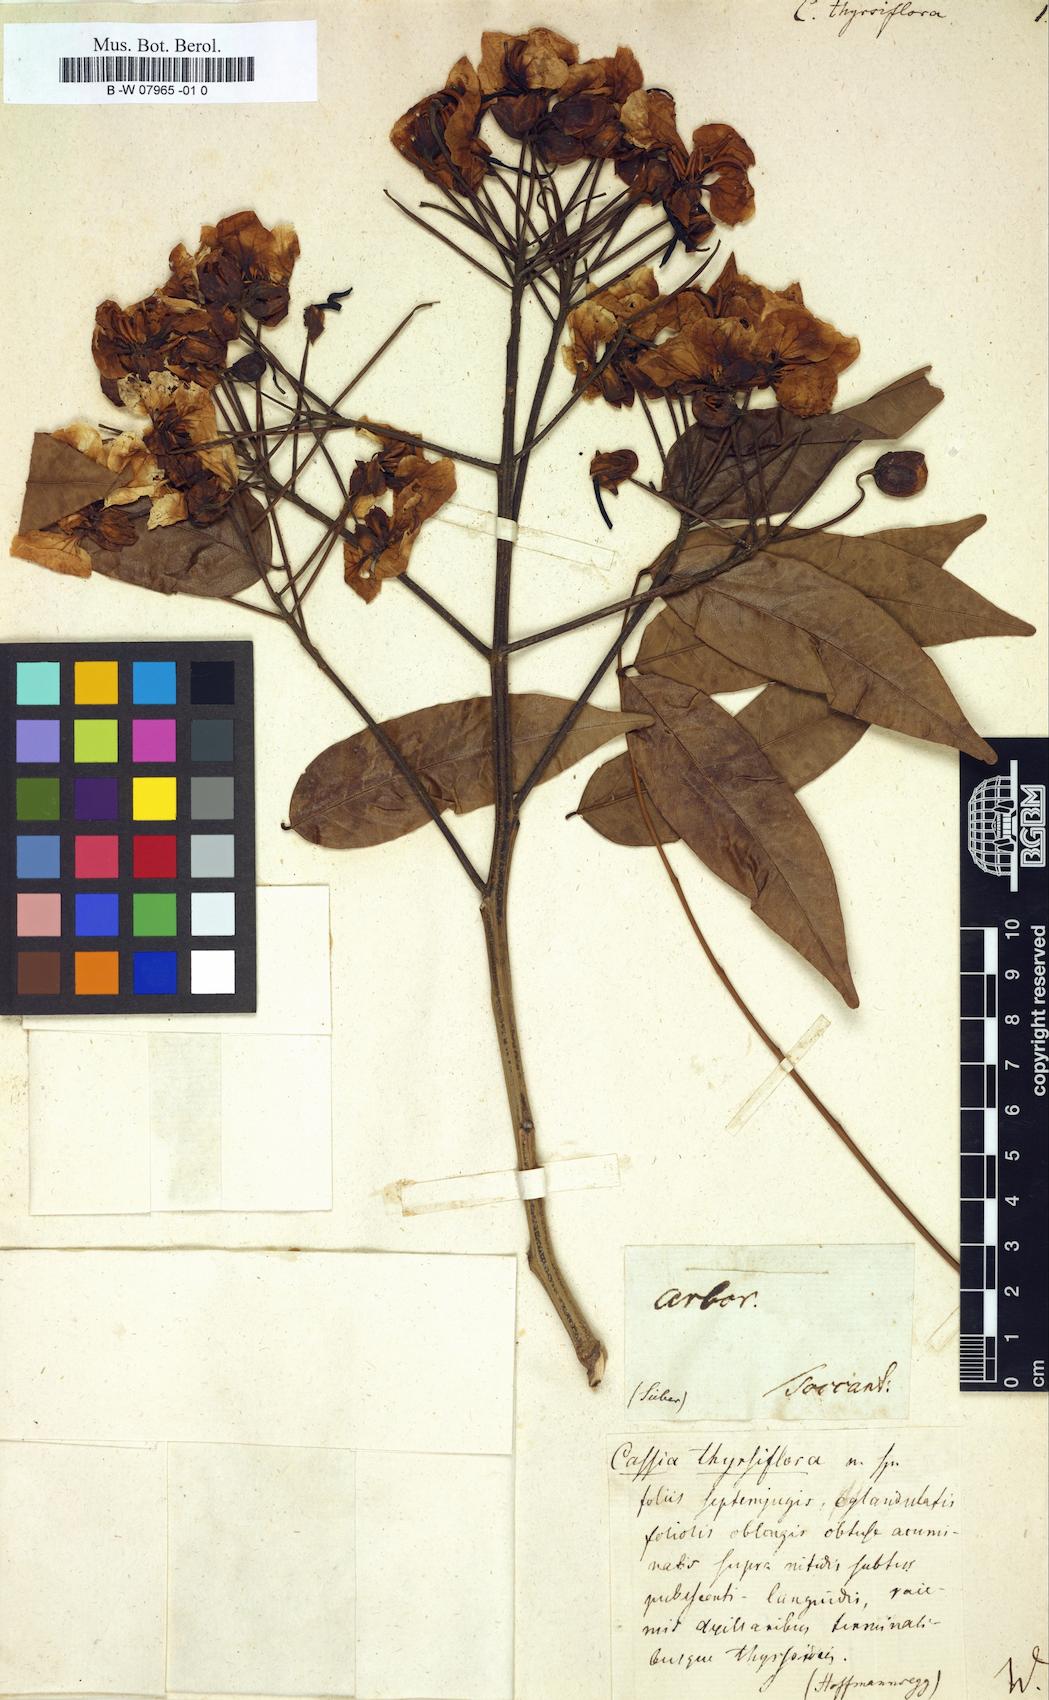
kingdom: Plantae
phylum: Tracheophyta
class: Magnoliopsida
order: Fabales
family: Fabaceae
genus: Chamaecrista
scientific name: Chamaecrista sophoroides
